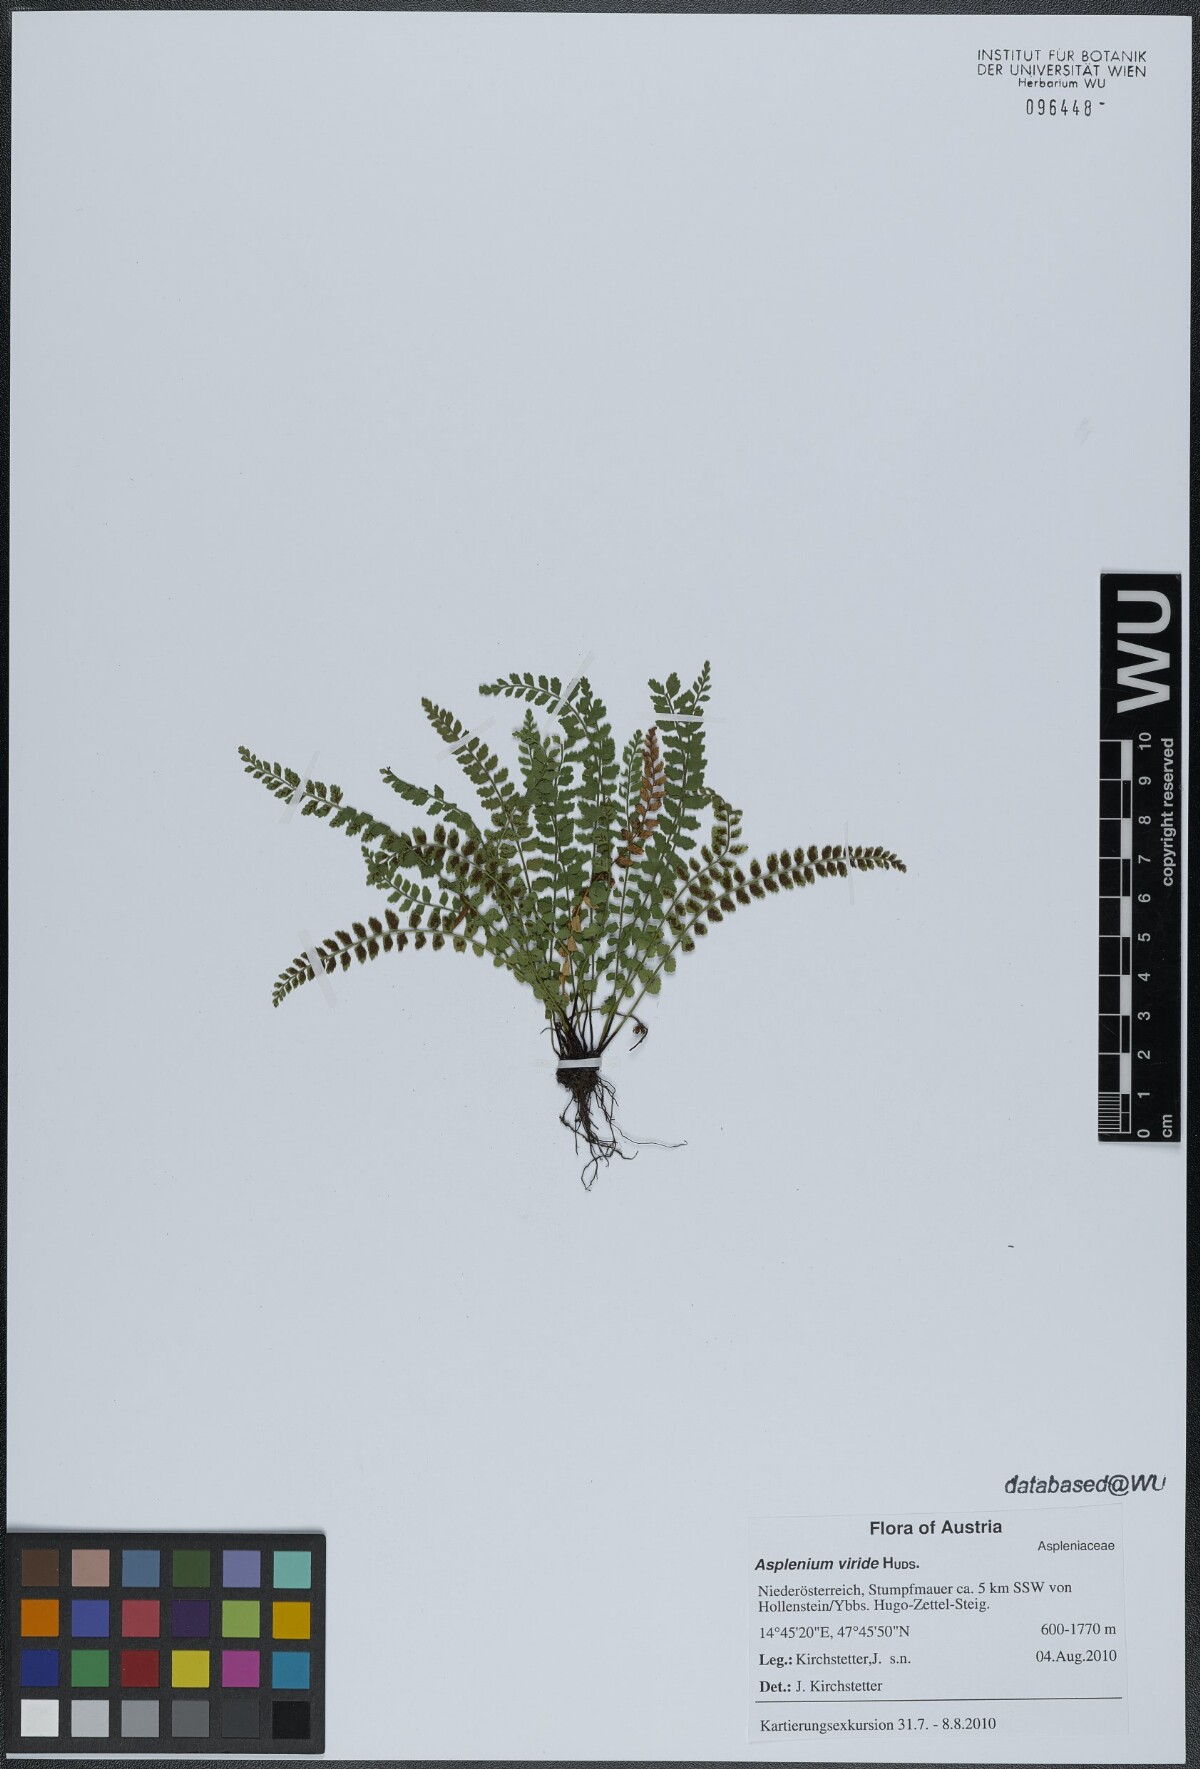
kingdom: Plantae
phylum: Tracheophyta
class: Polypodiopsida
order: Polypodiales
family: Aspleniaceae
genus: Asplenium
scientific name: Asplenium viride
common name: Green spleenwort
